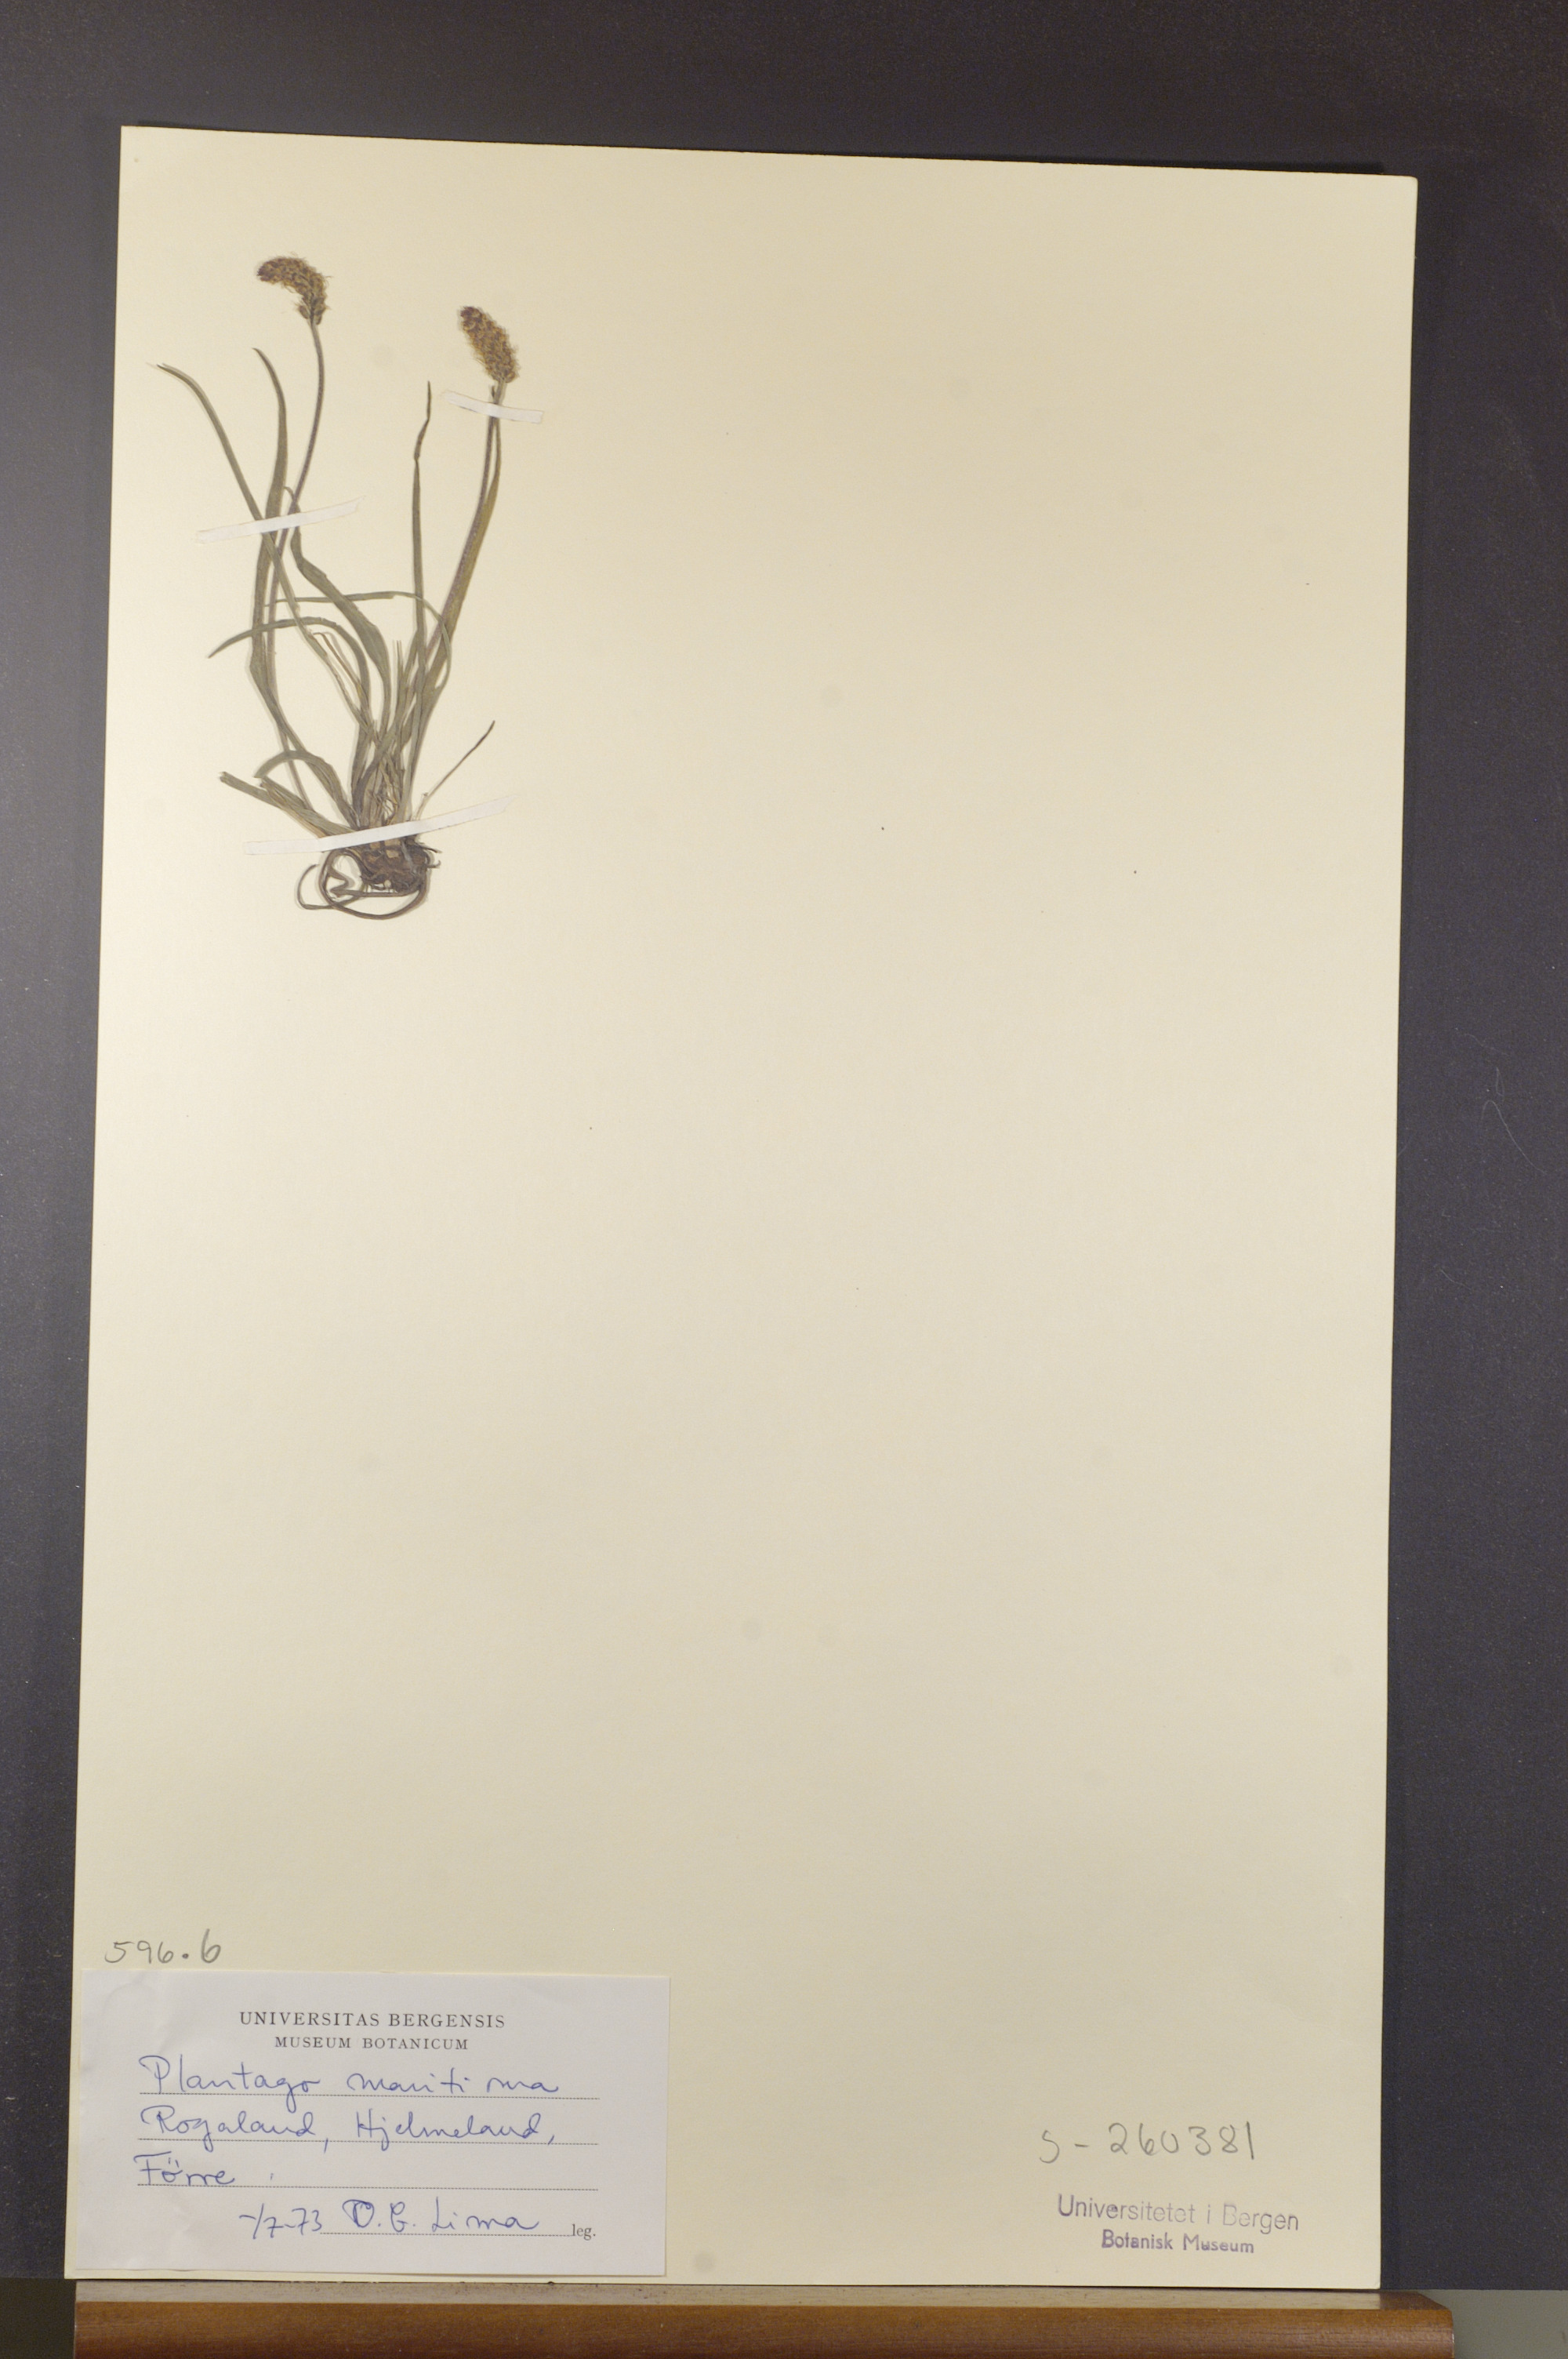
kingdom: Plantae
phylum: Tracheophyta
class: Magnoliopsida
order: Lamiales
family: Plantaginaceae
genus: Plantago
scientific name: Plantago maritima
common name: Sea plantain
